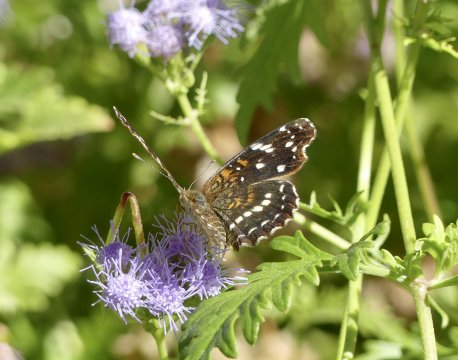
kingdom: Animalia
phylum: Arthropoda
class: Insecta
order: Lepidoptera
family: Nymphalidae
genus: Anthanassa
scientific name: Anthanassa texana
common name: Texan Crescent
